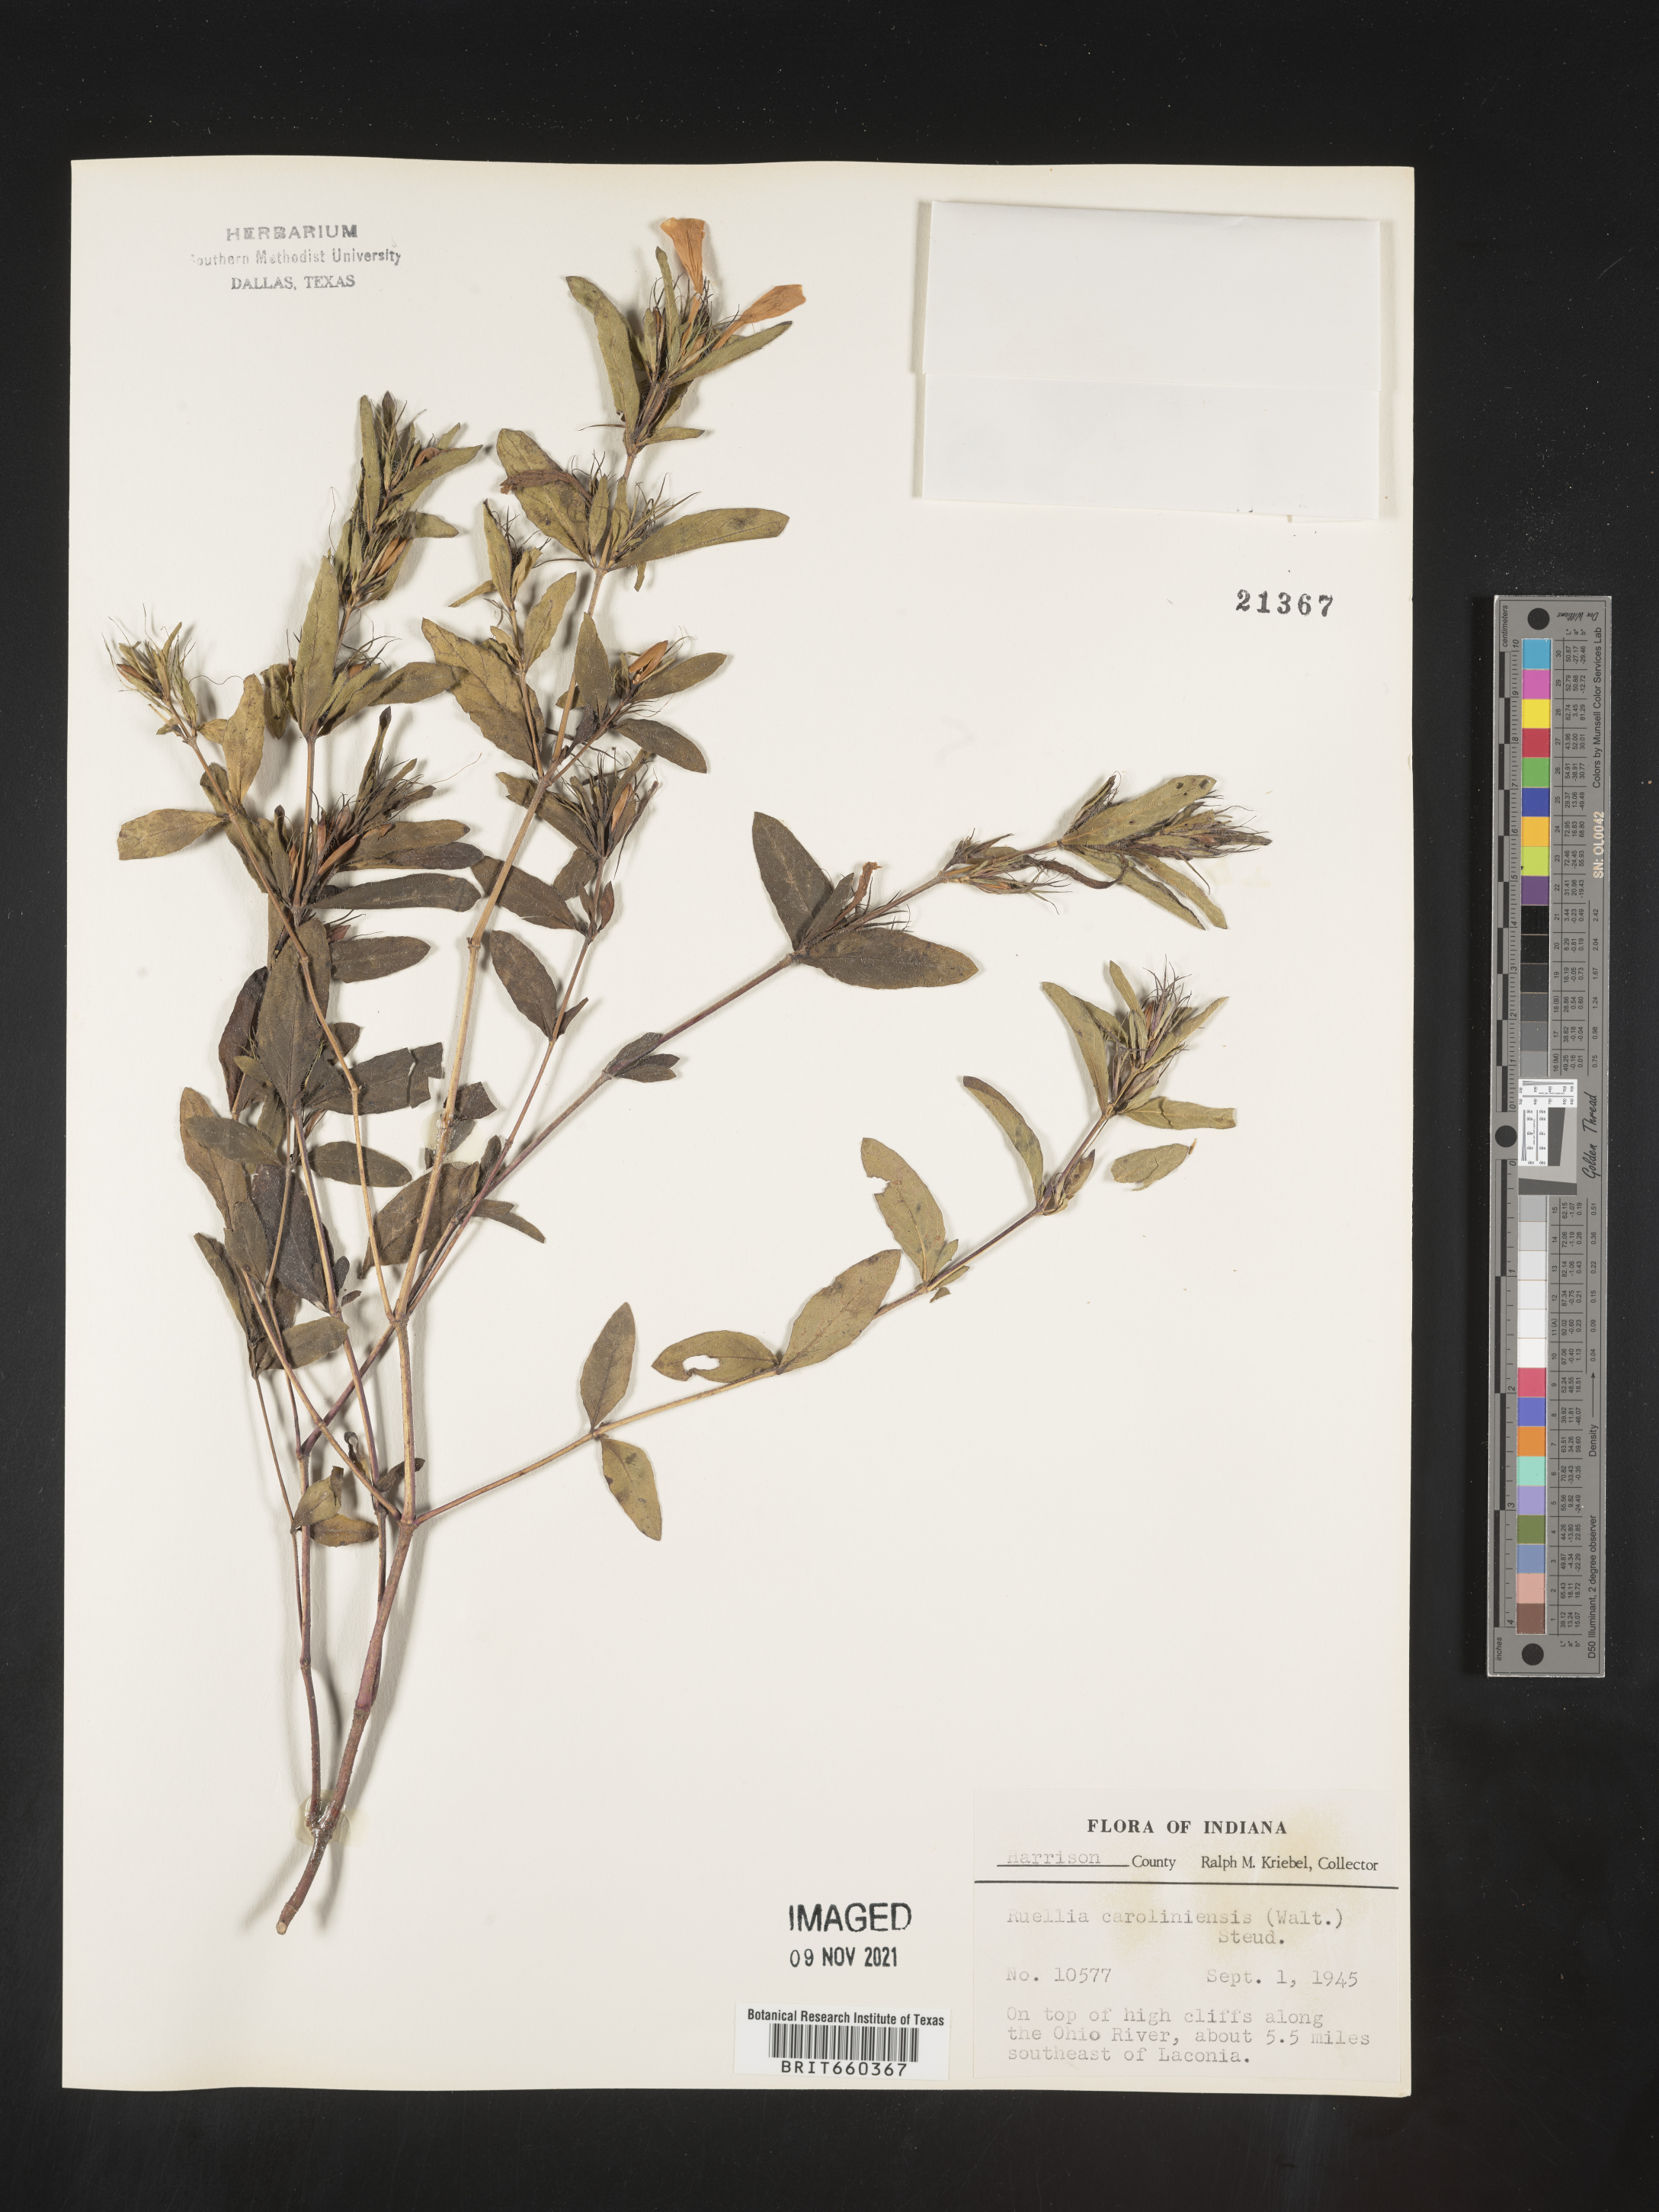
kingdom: Plantae
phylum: Tracheophyta
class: Magnoliopsida
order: Lamiales
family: Acanthaceae
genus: Ruellia
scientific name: Ruellia caroliniensis
